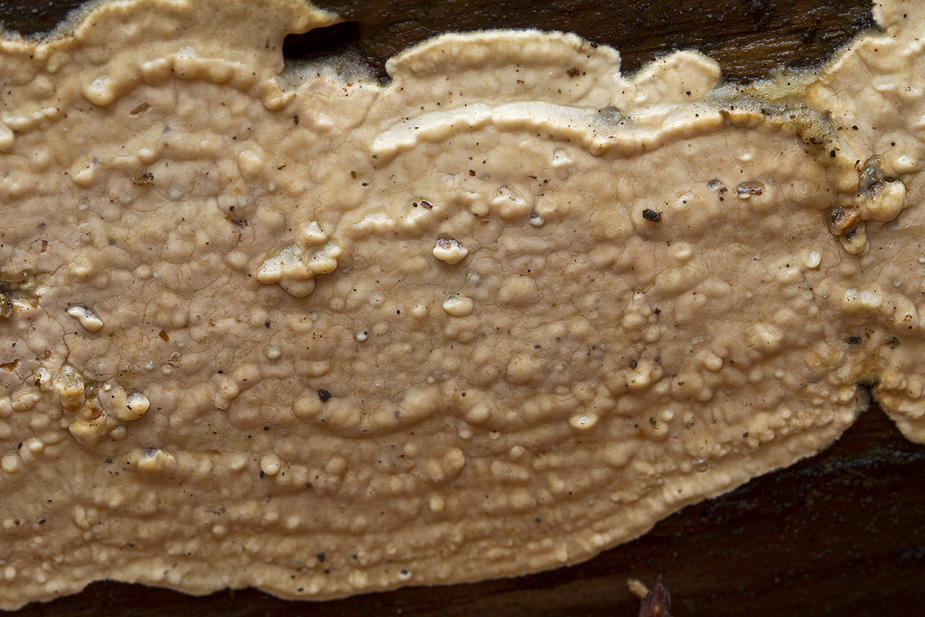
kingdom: Fungi
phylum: Basidiomycota
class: Agaricomycetes
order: Polyporales
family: Dacryobolaceae
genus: Dacryobolus
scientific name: Dacryobolus karstenii
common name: glat vulkanskorpe
